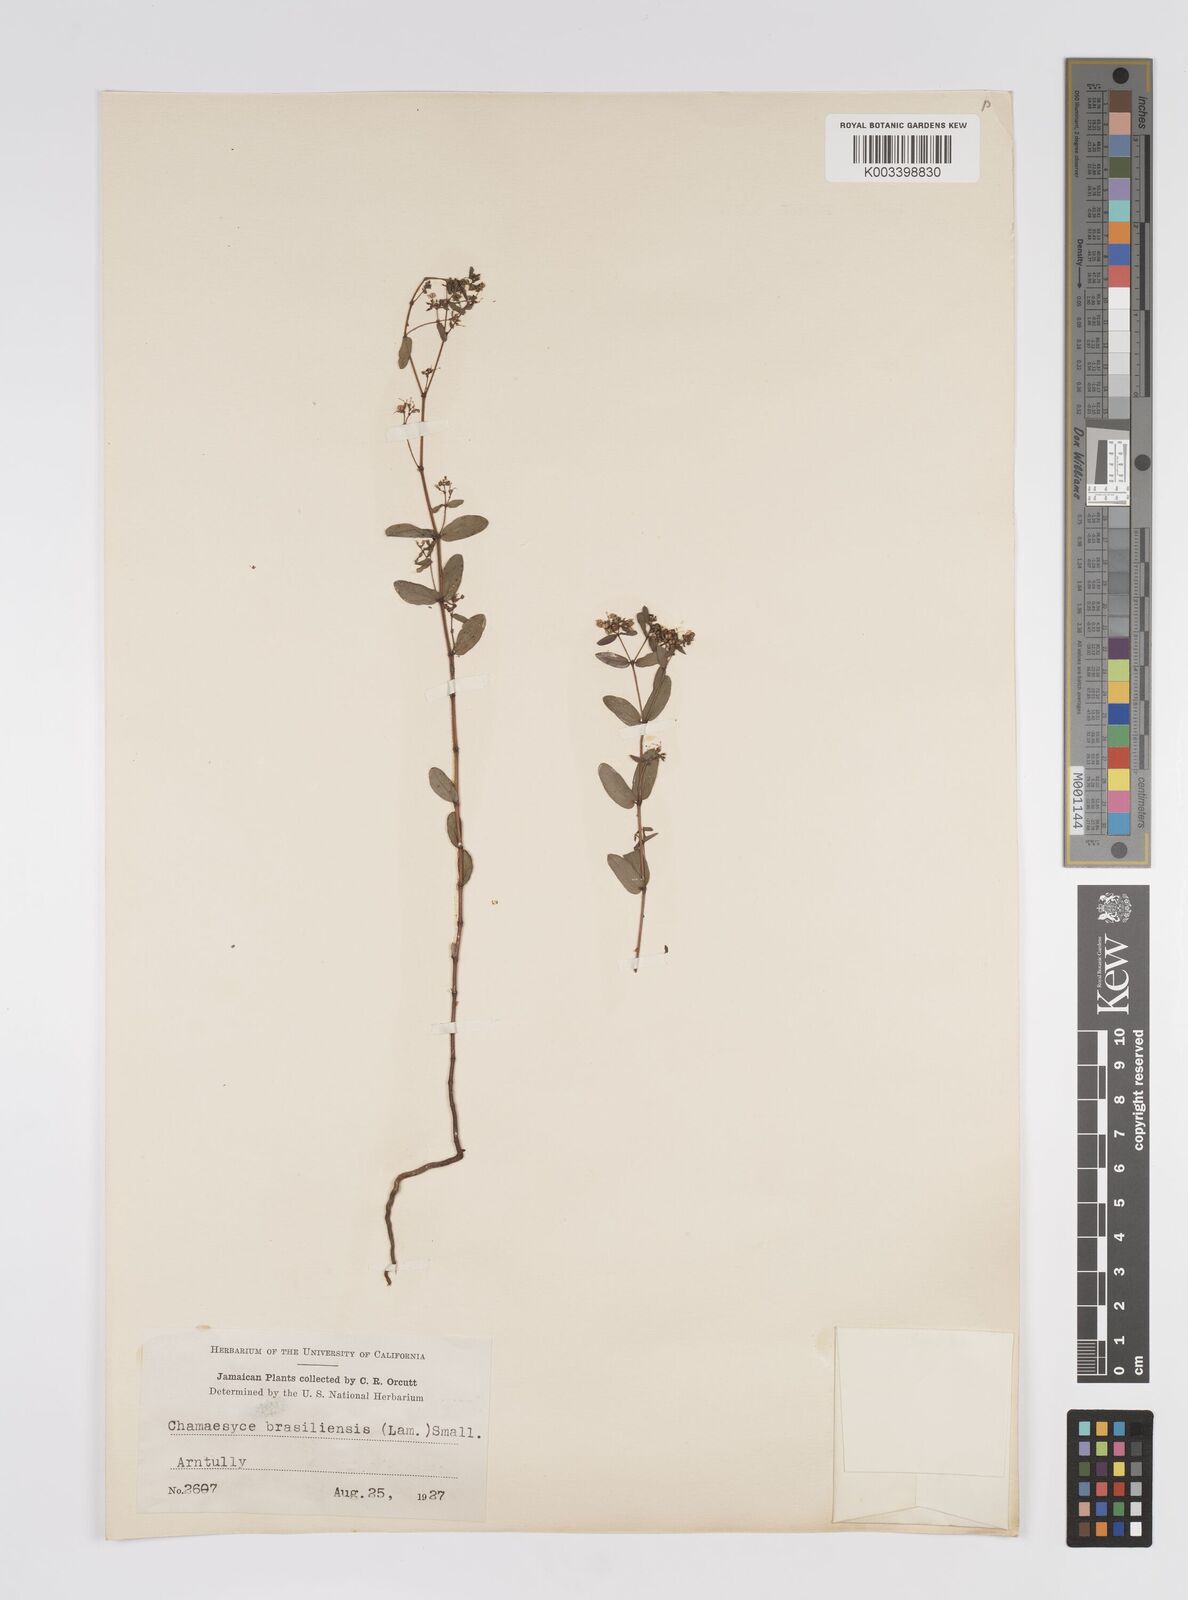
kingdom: Plantae
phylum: Tracheophyta
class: Magnoliopsida
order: Malpighiales
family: Euphorbiaceae
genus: Euphorbia
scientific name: Euphorbia hyssopifolia
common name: Hyssopleaf sandmat
